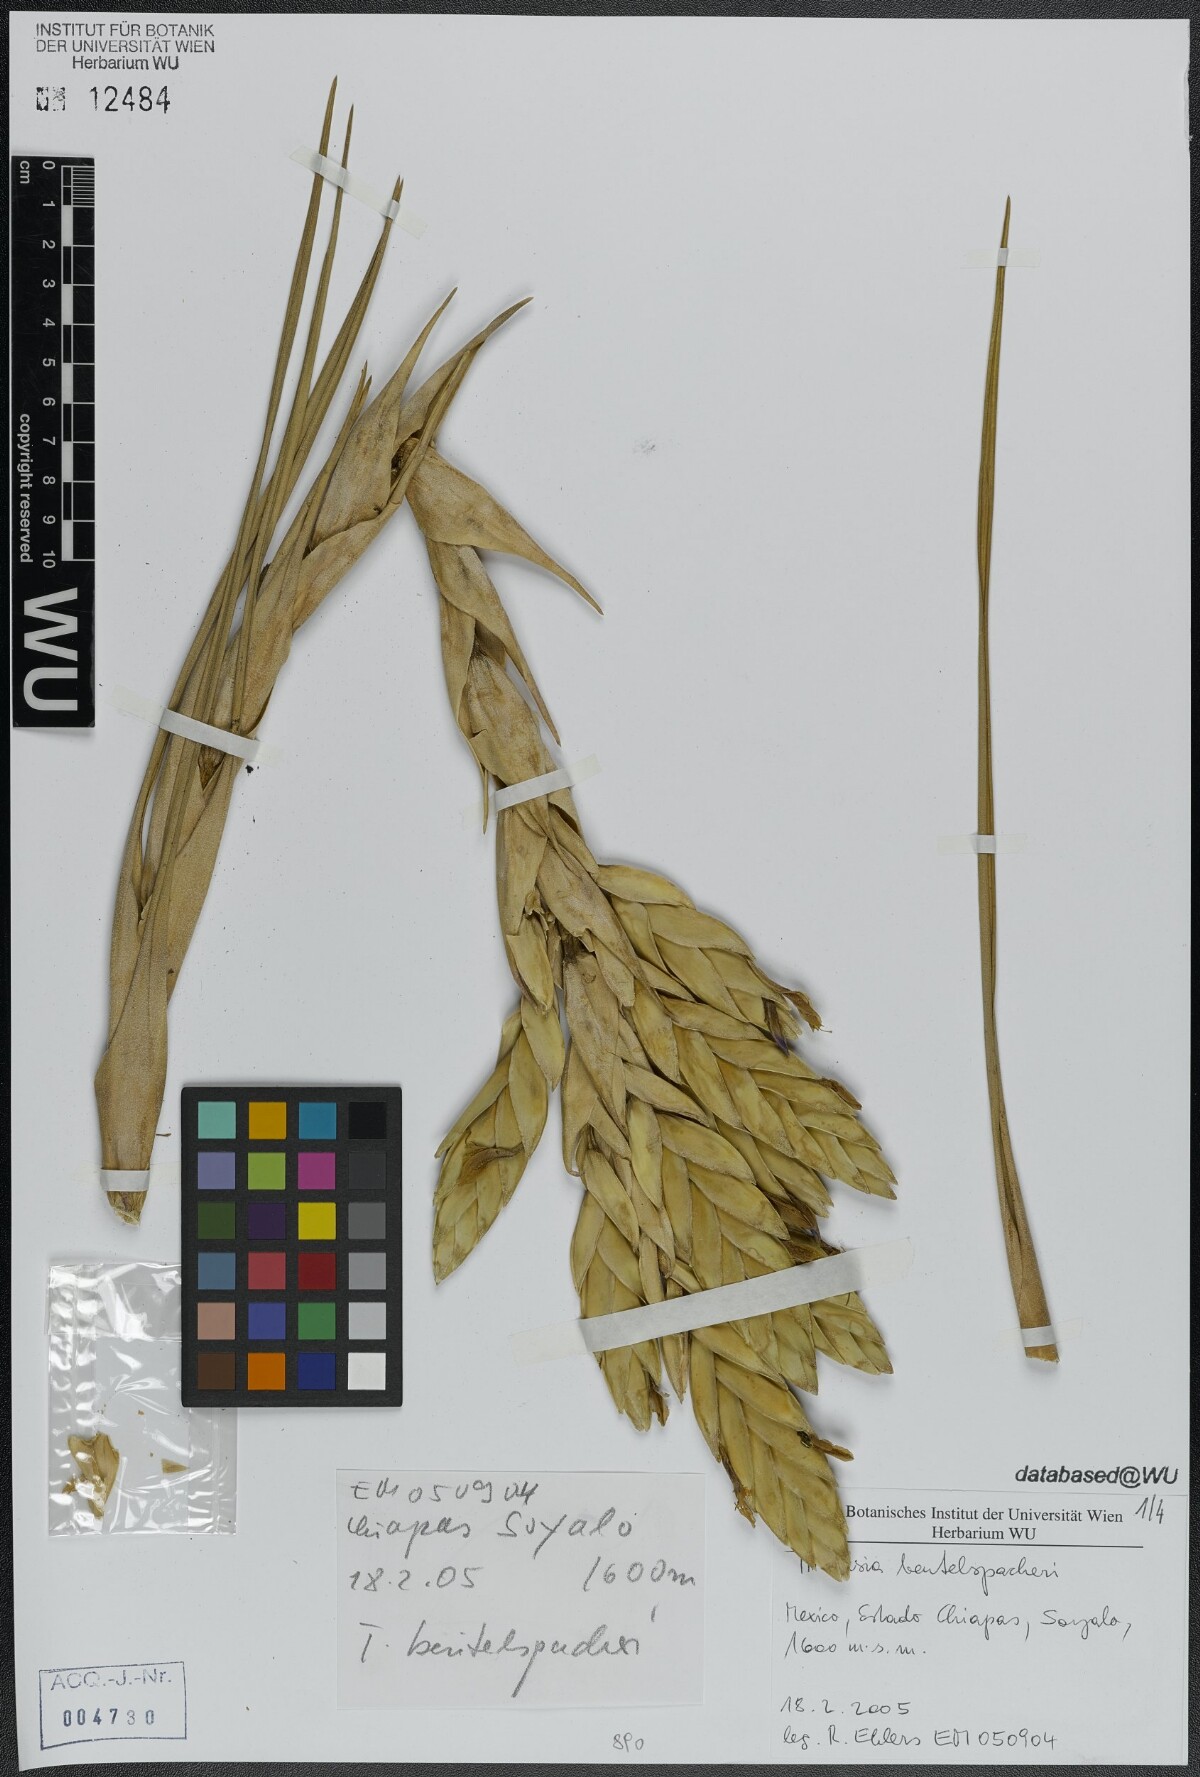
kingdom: Plantae
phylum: Tracheophyta
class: Liliopsida
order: Poales
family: Bromeliaceae
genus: Tillandsia
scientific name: Tillandsia fasciculata
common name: Giant airplant
